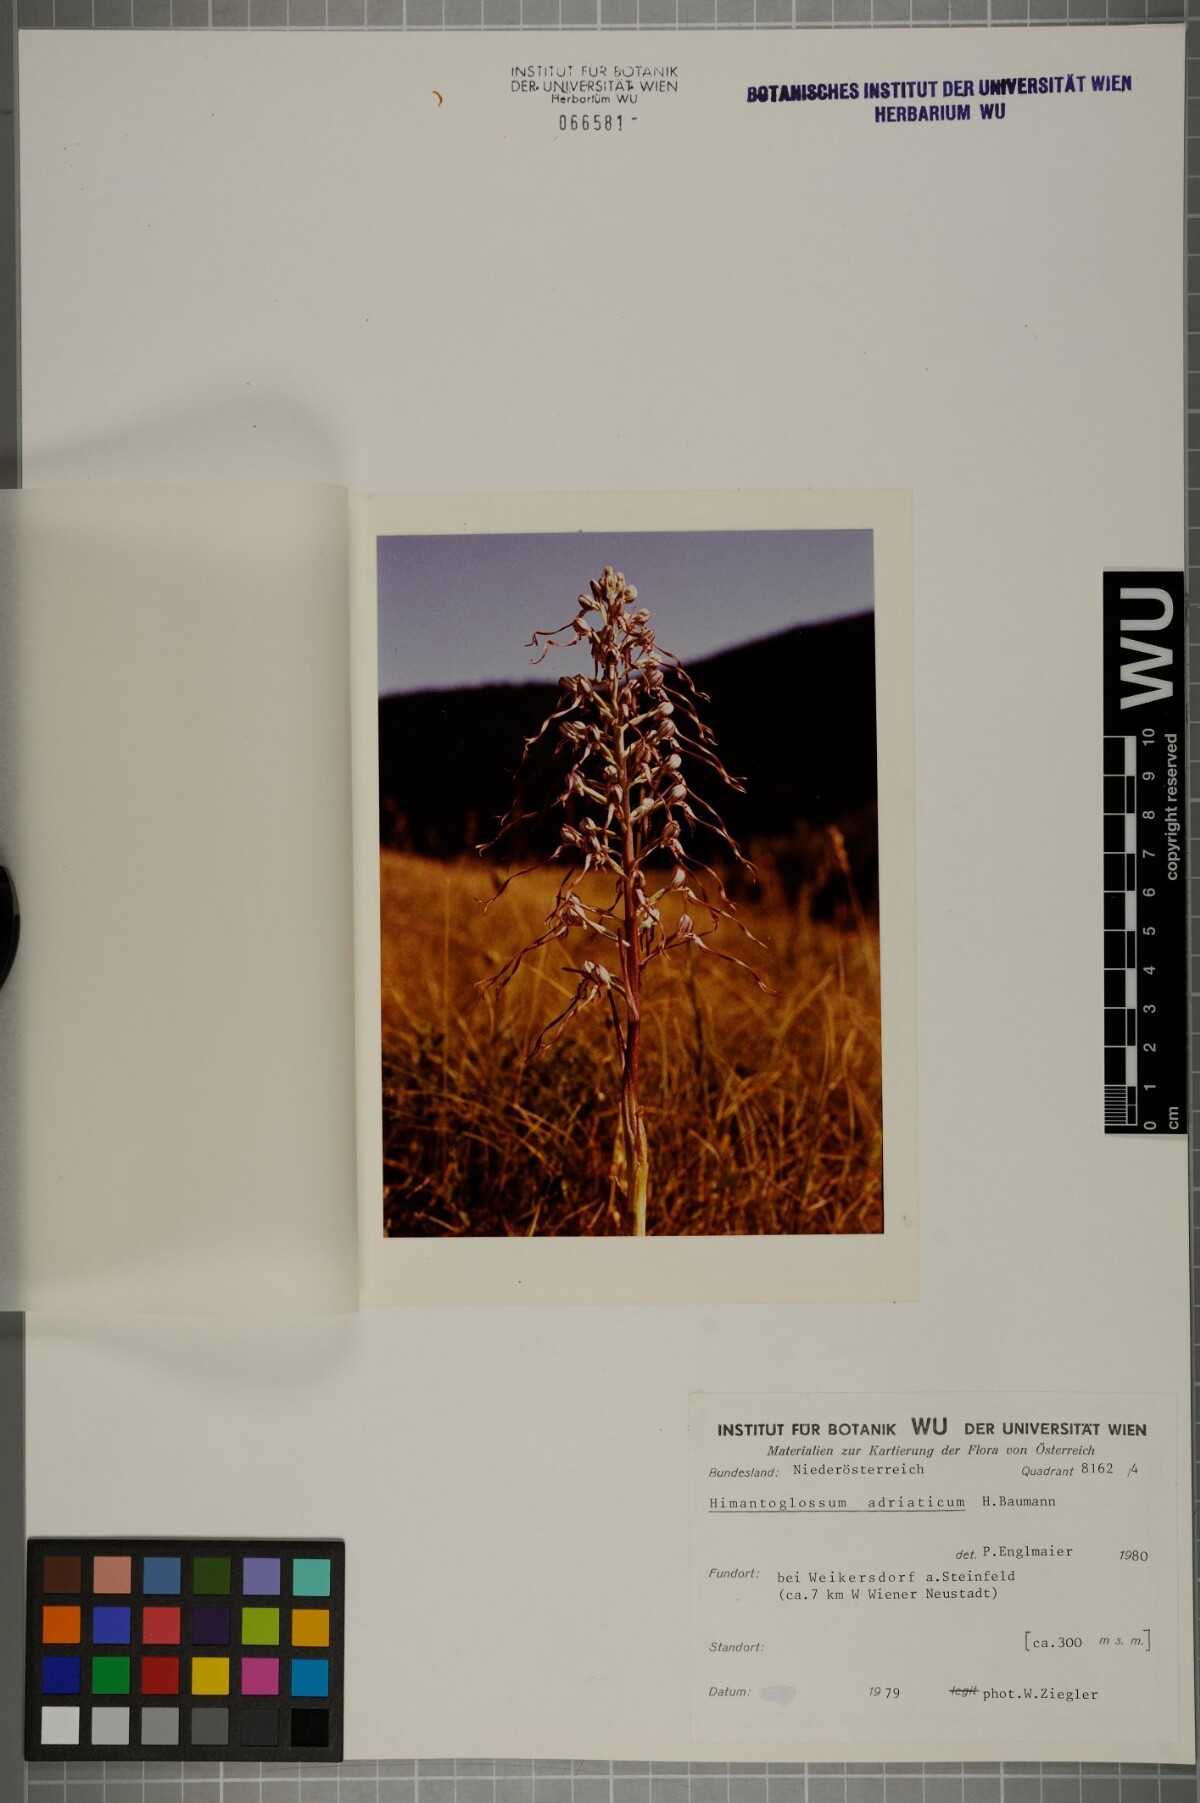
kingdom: Plantae
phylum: Tracheophyta
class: Liliopsida
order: Asparagales
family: Orchidaceae
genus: Himantoglossum
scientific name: Himantoglossum adriaticum
